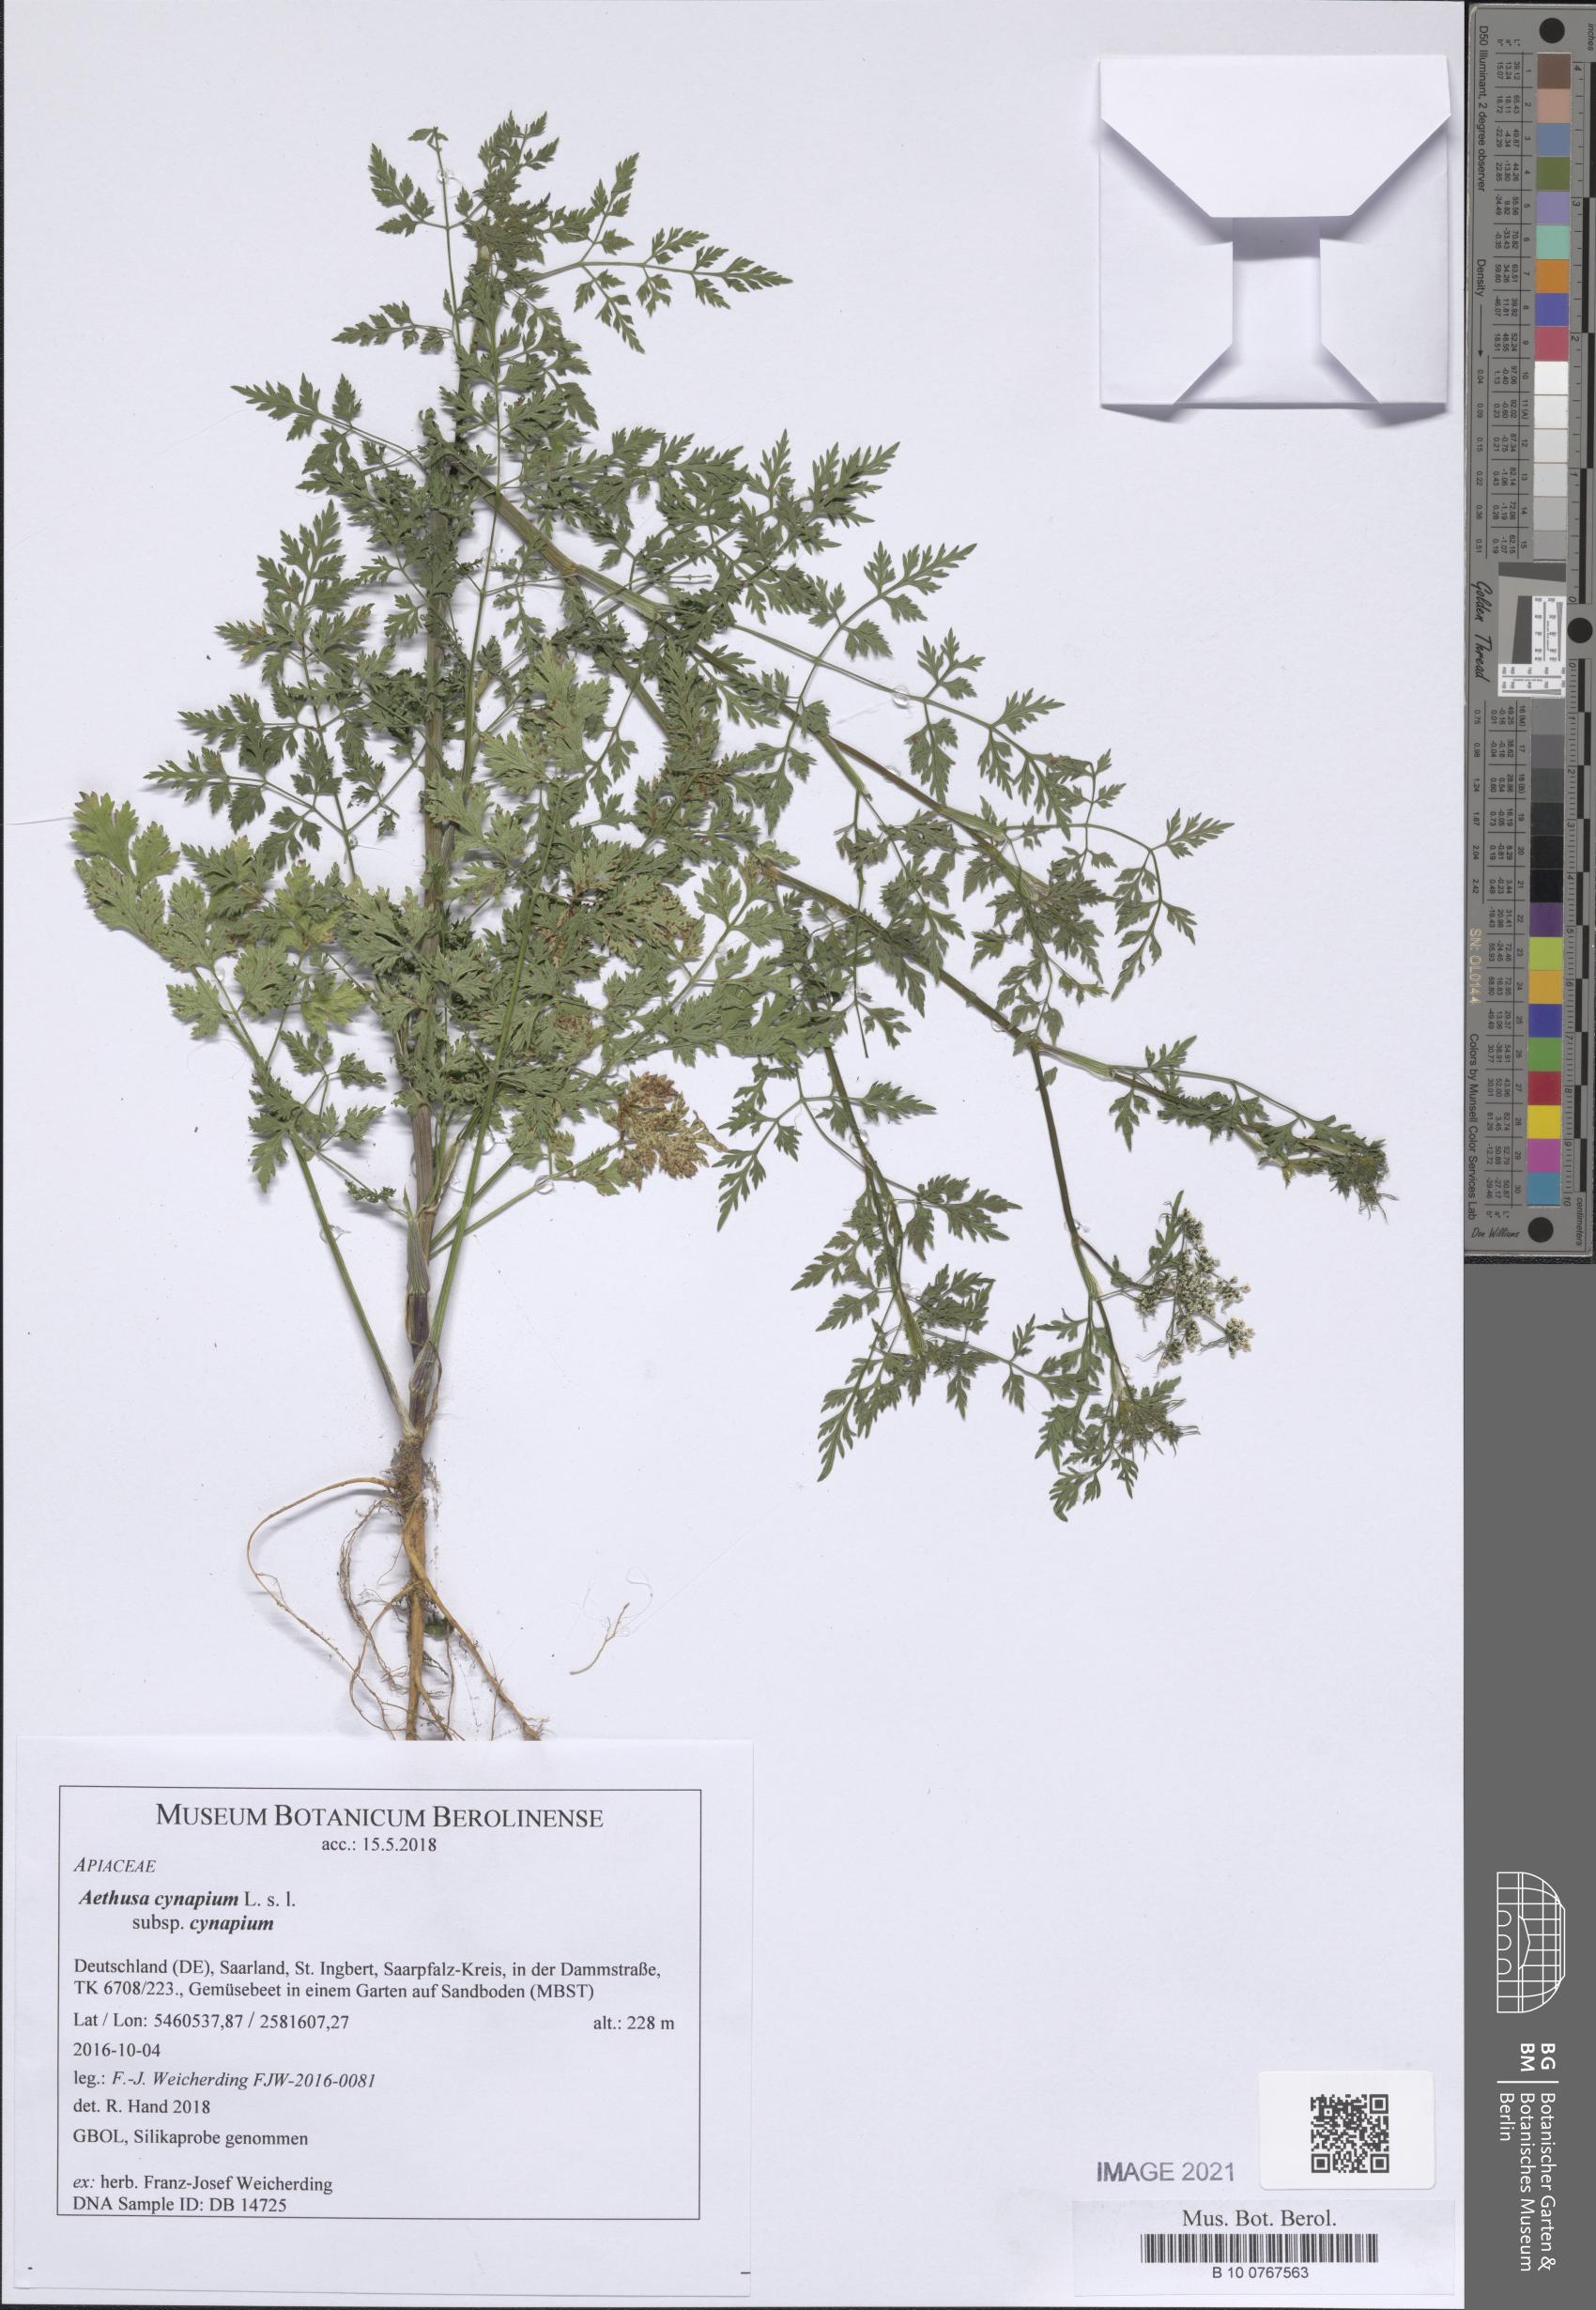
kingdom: Plantae
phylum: Tracheophyta
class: Magnoliopsida
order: Apiales
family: Apiaceae
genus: Aethusa
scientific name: Aethusa cynapium
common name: Fool's parsley
